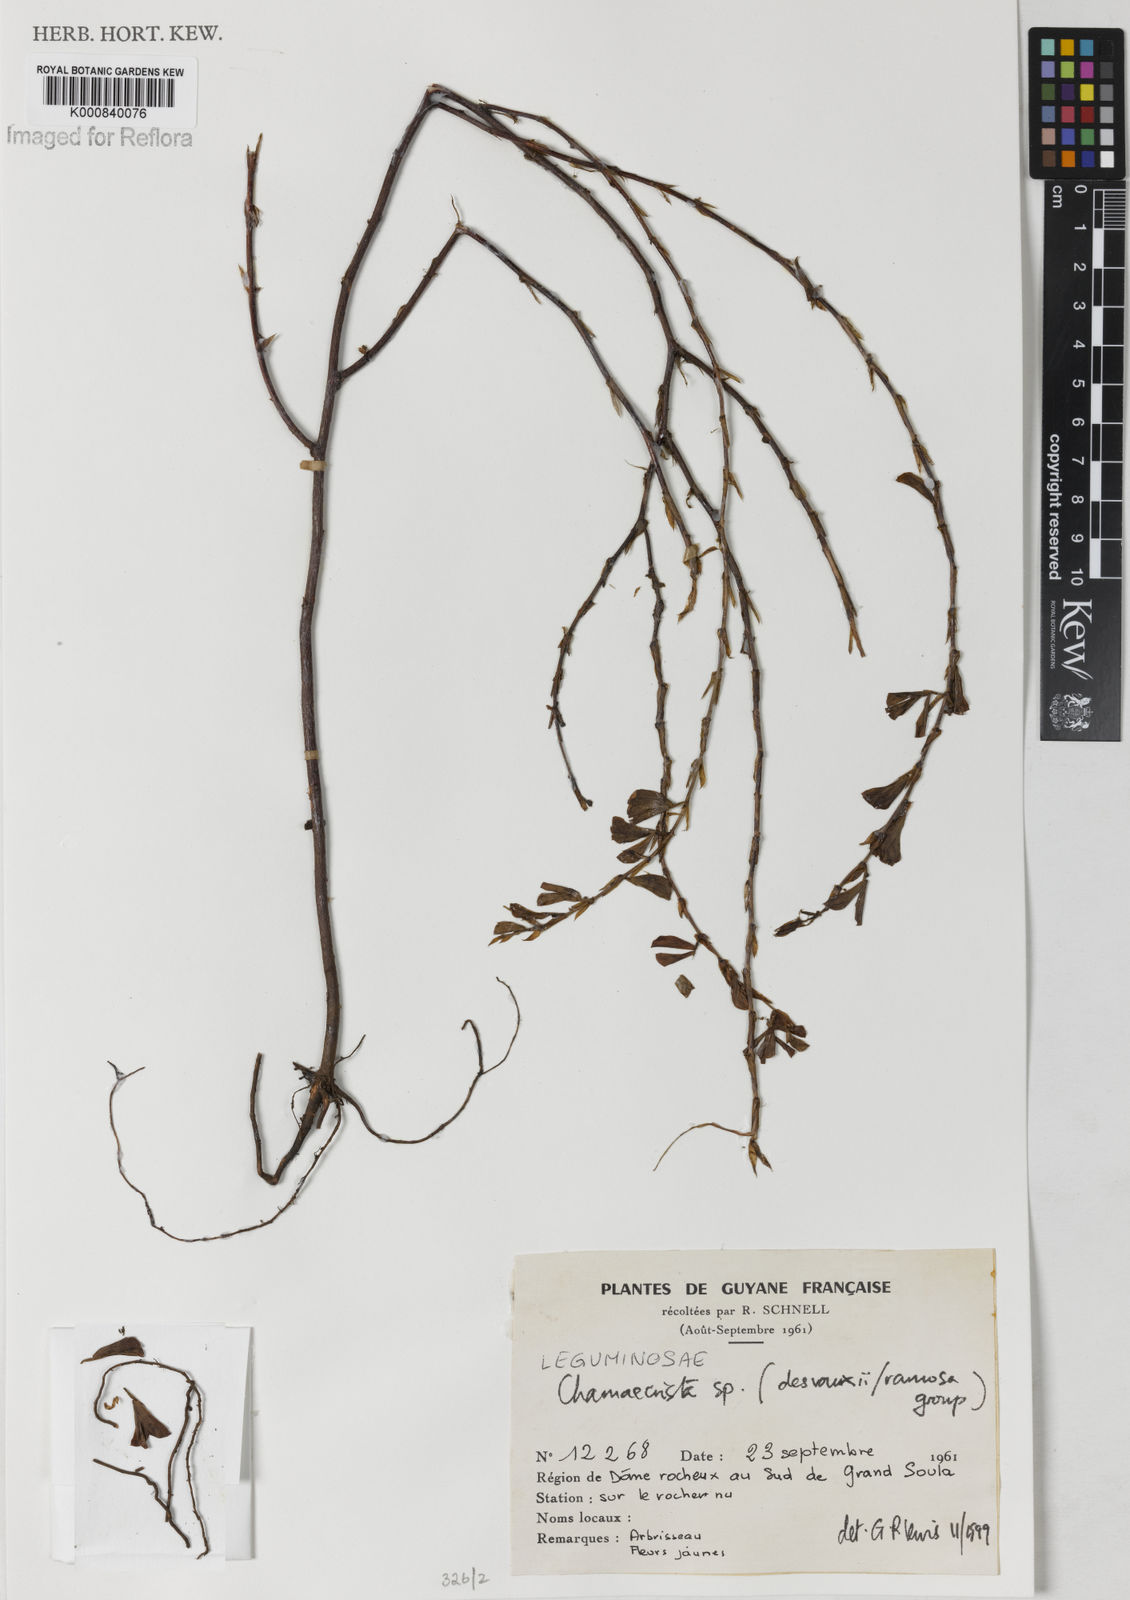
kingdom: Plantae
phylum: Tracheophyta
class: Magnoliopsida
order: Fabales
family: Fabaceae
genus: Chamaecrista
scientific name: Chamaecrista desvauxii
